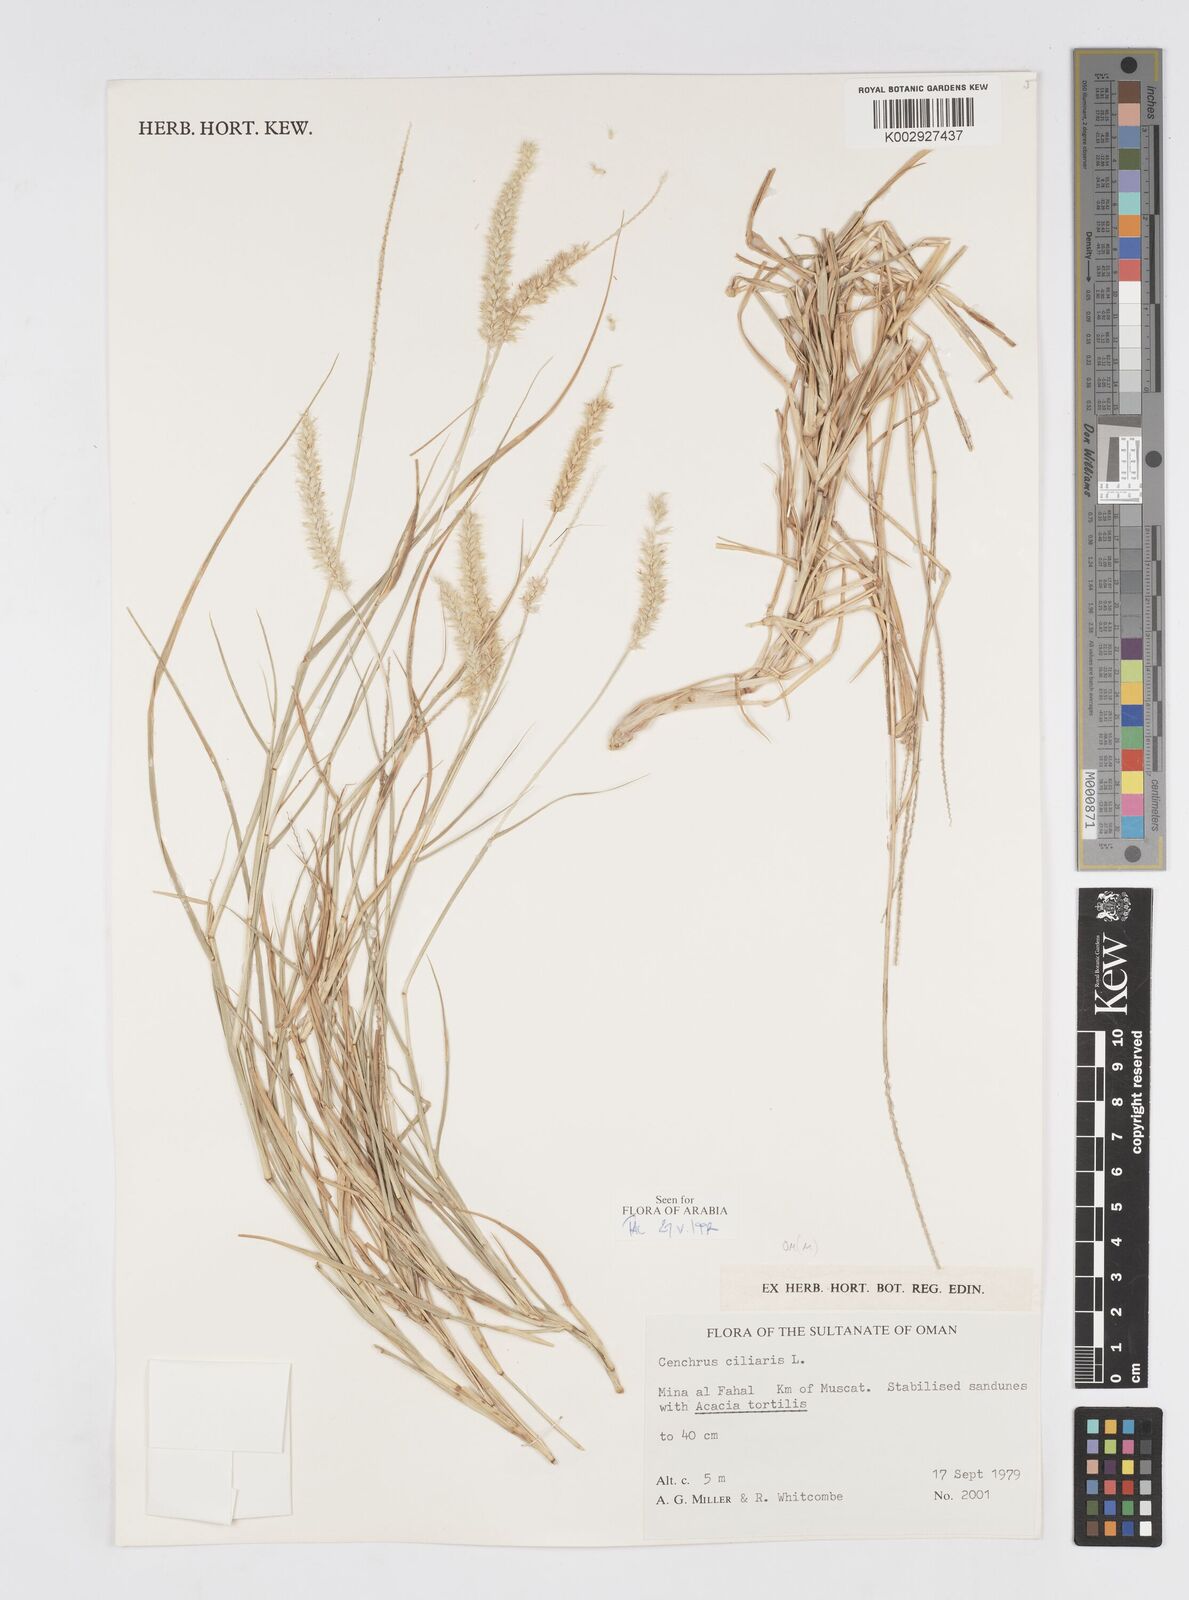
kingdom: Plantae
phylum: Tracheophyta
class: Liliopsida
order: Poales
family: Poaceae
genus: Cenchrus
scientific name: Cenchrus ciliaris
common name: Buffelgrass
